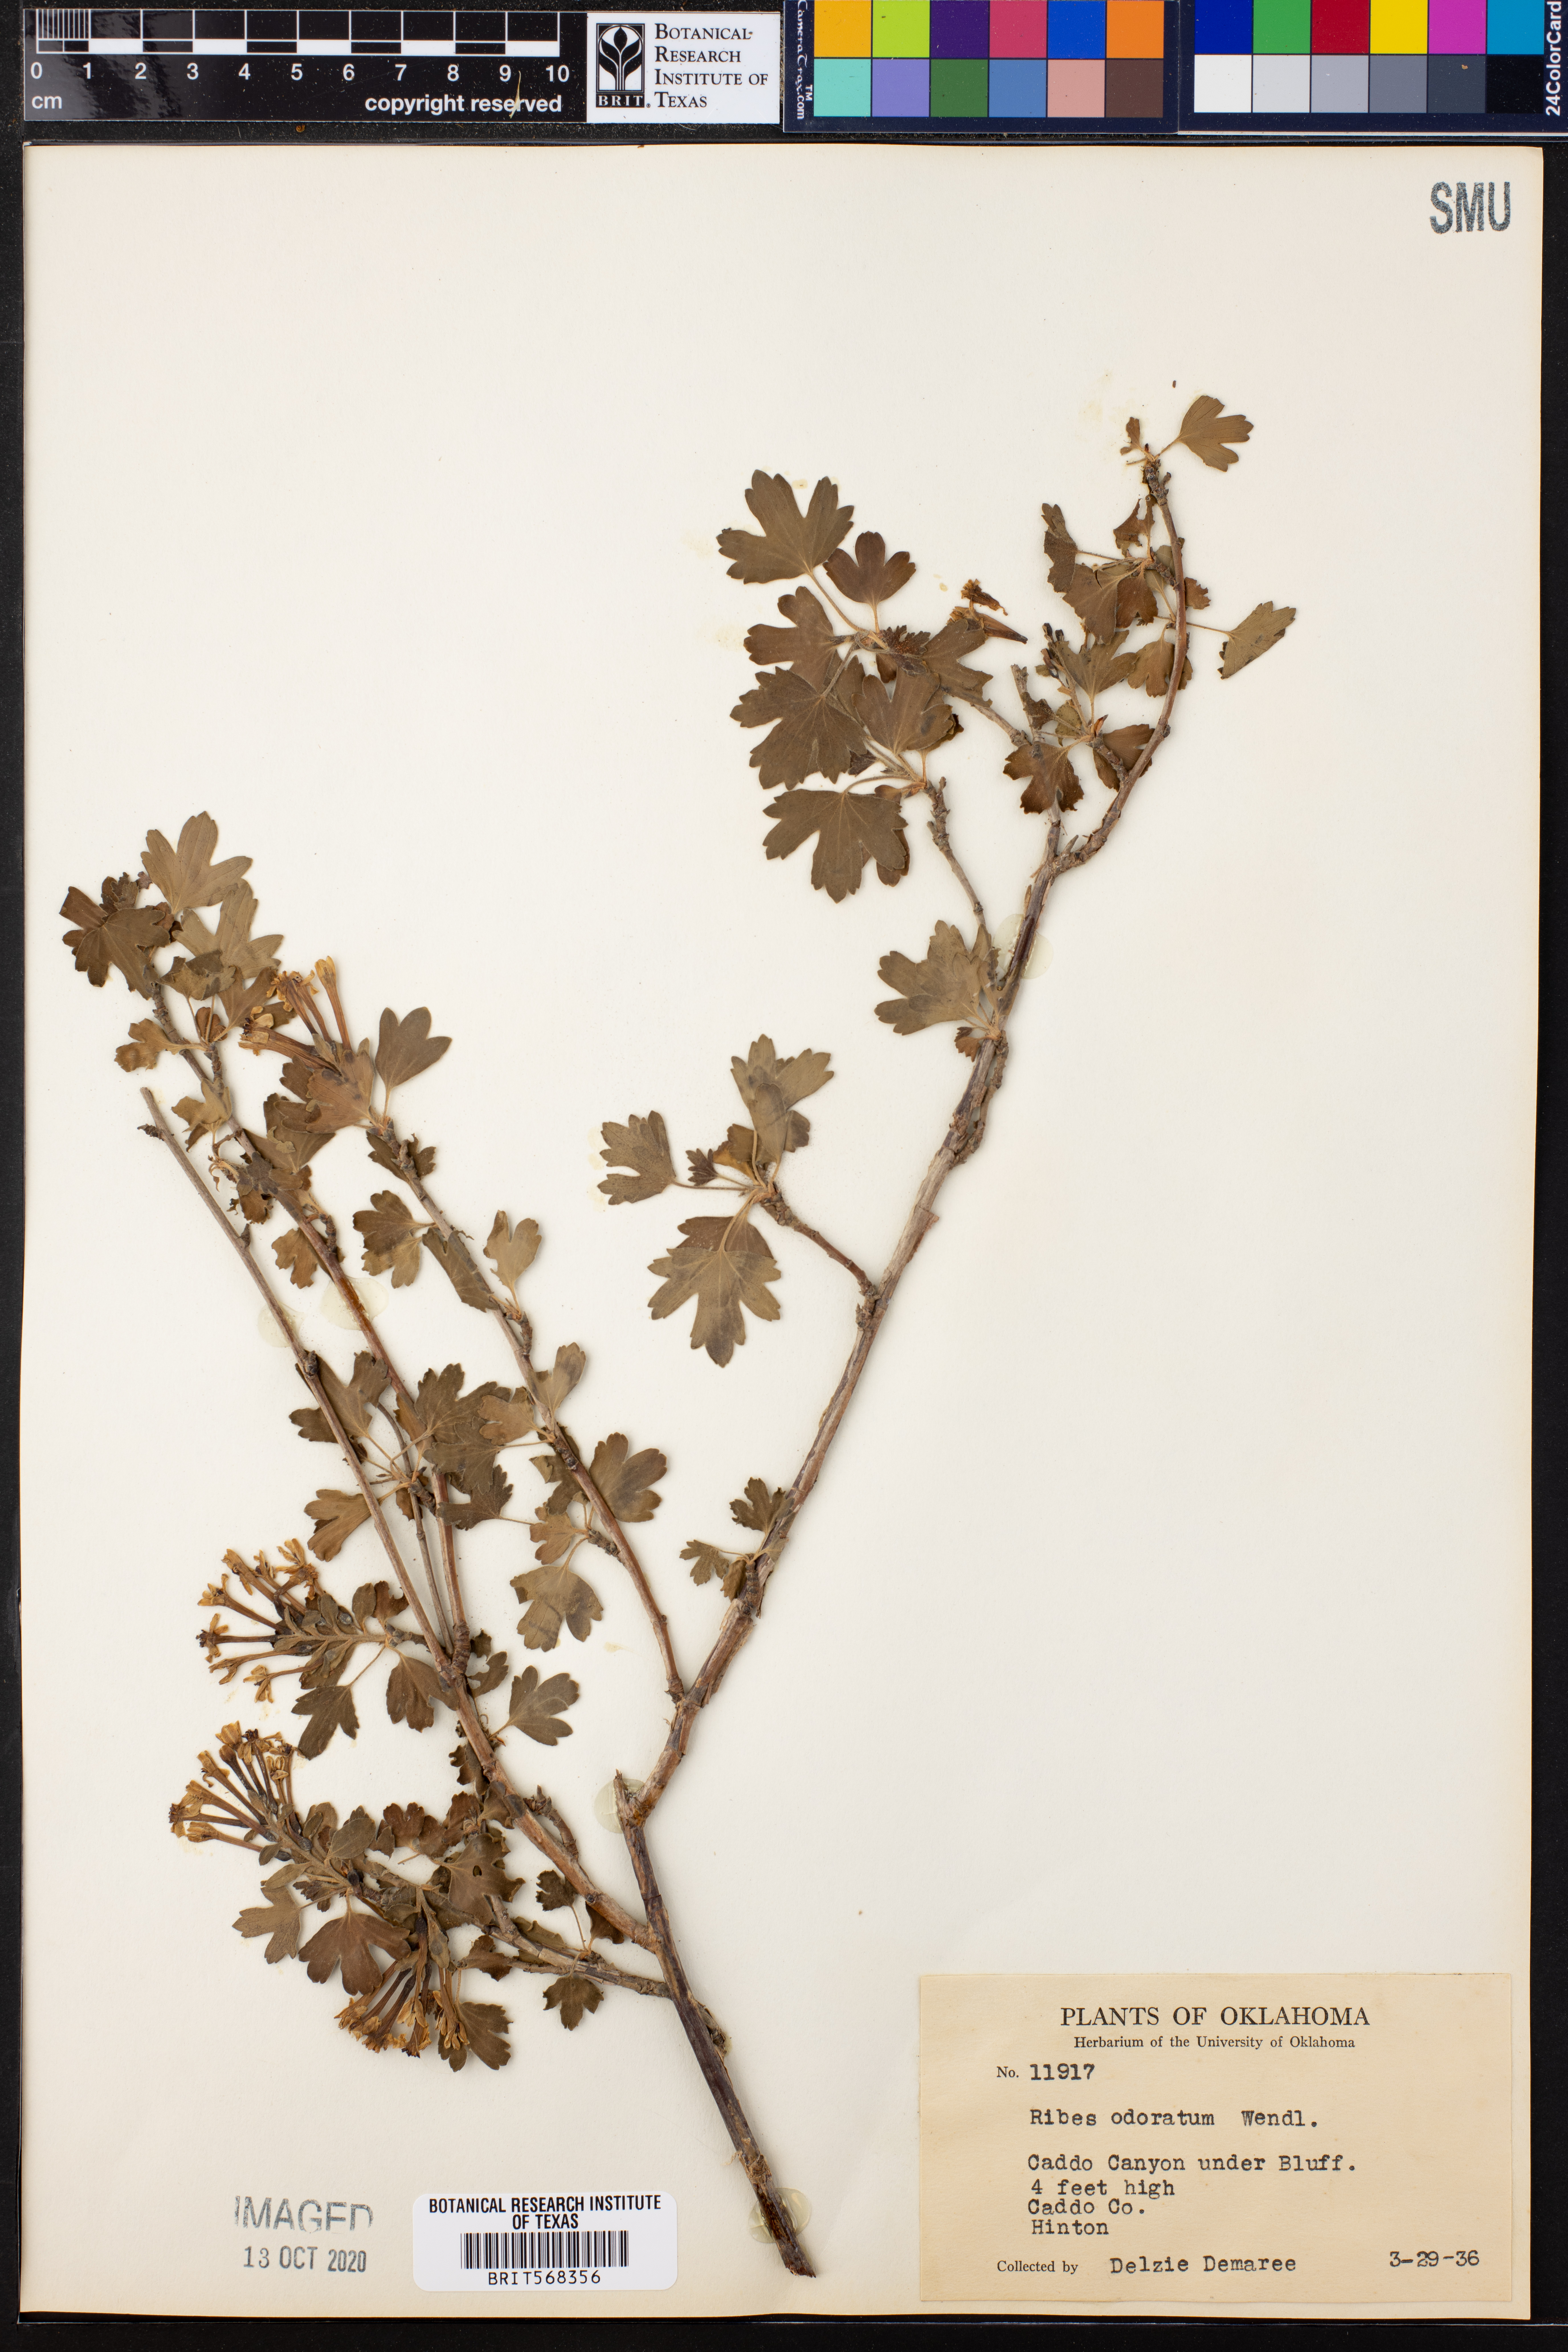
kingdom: Plantae
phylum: Tracheophyta
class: Magnoliopsida
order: Saxifragales
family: Grossulariaceae
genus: Ribes
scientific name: Ribes aureum
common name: Golden currant
